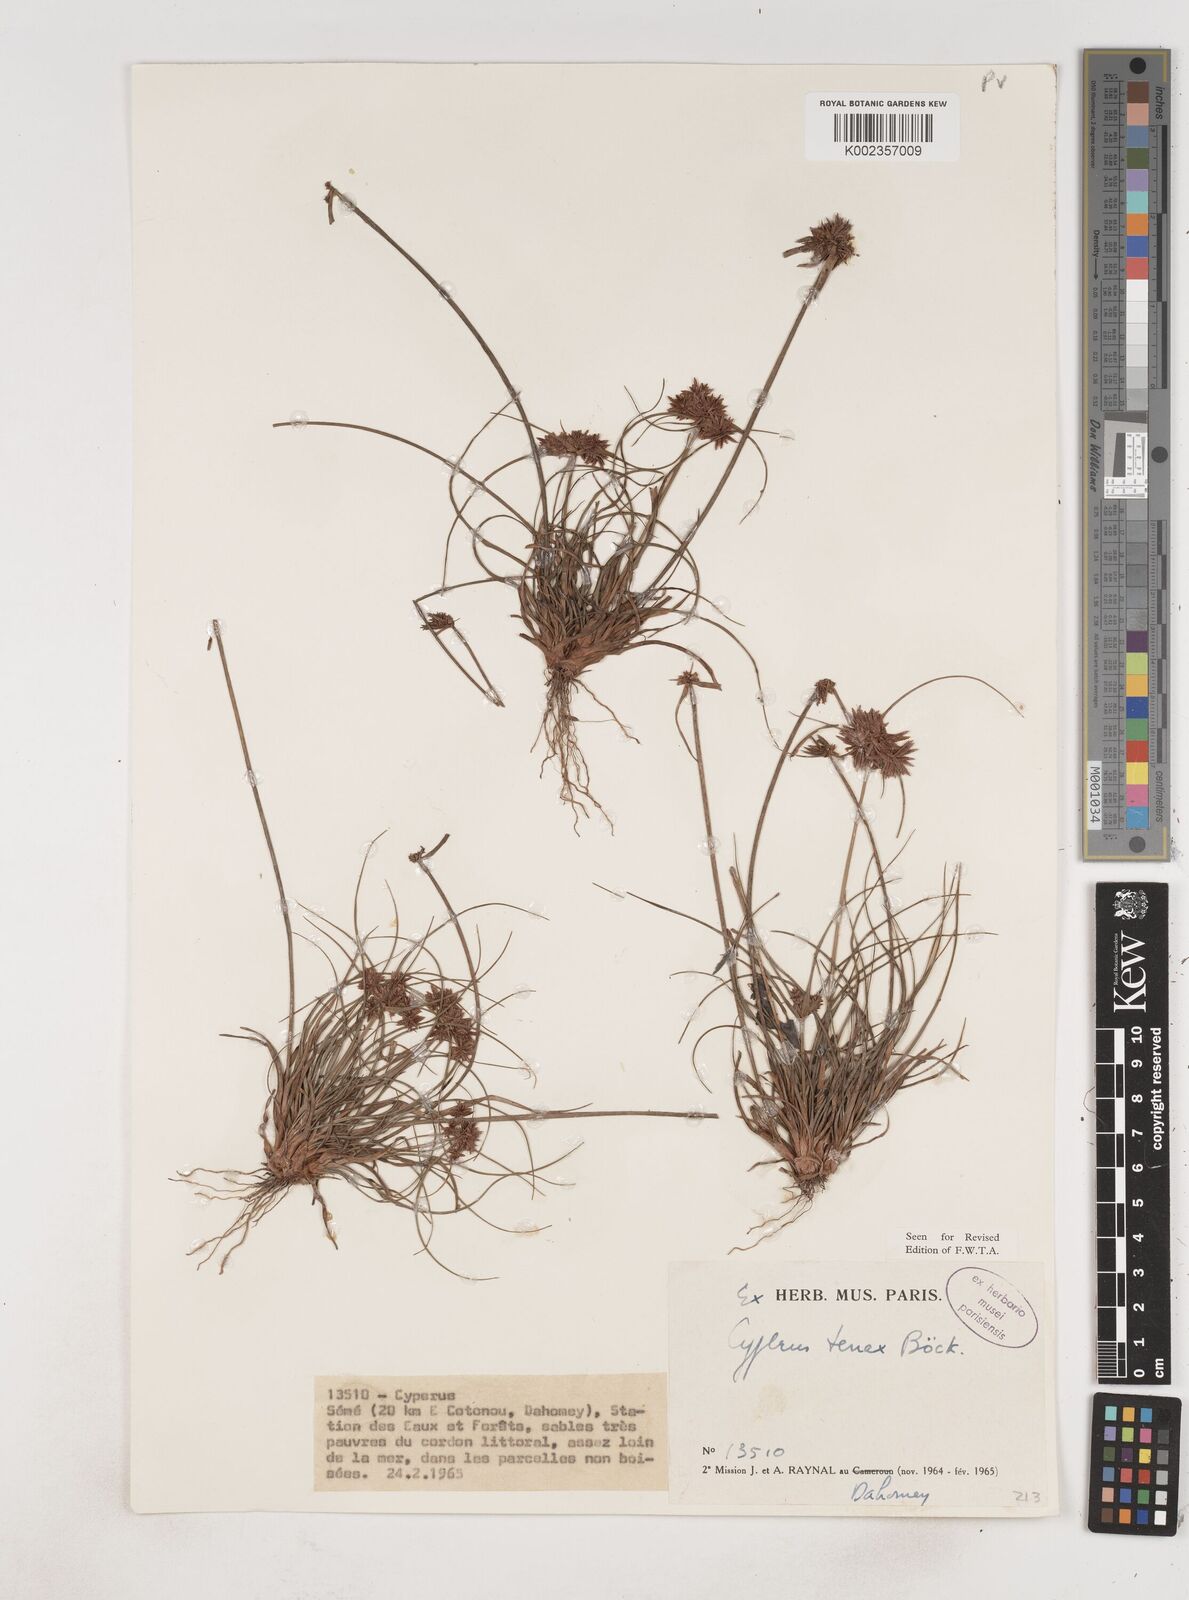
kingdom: Plantae
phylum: Tracheophyta
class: Liliopsida
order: Poales
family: Cyperaceae
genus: Cyperus
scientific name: Cyperus tenax
